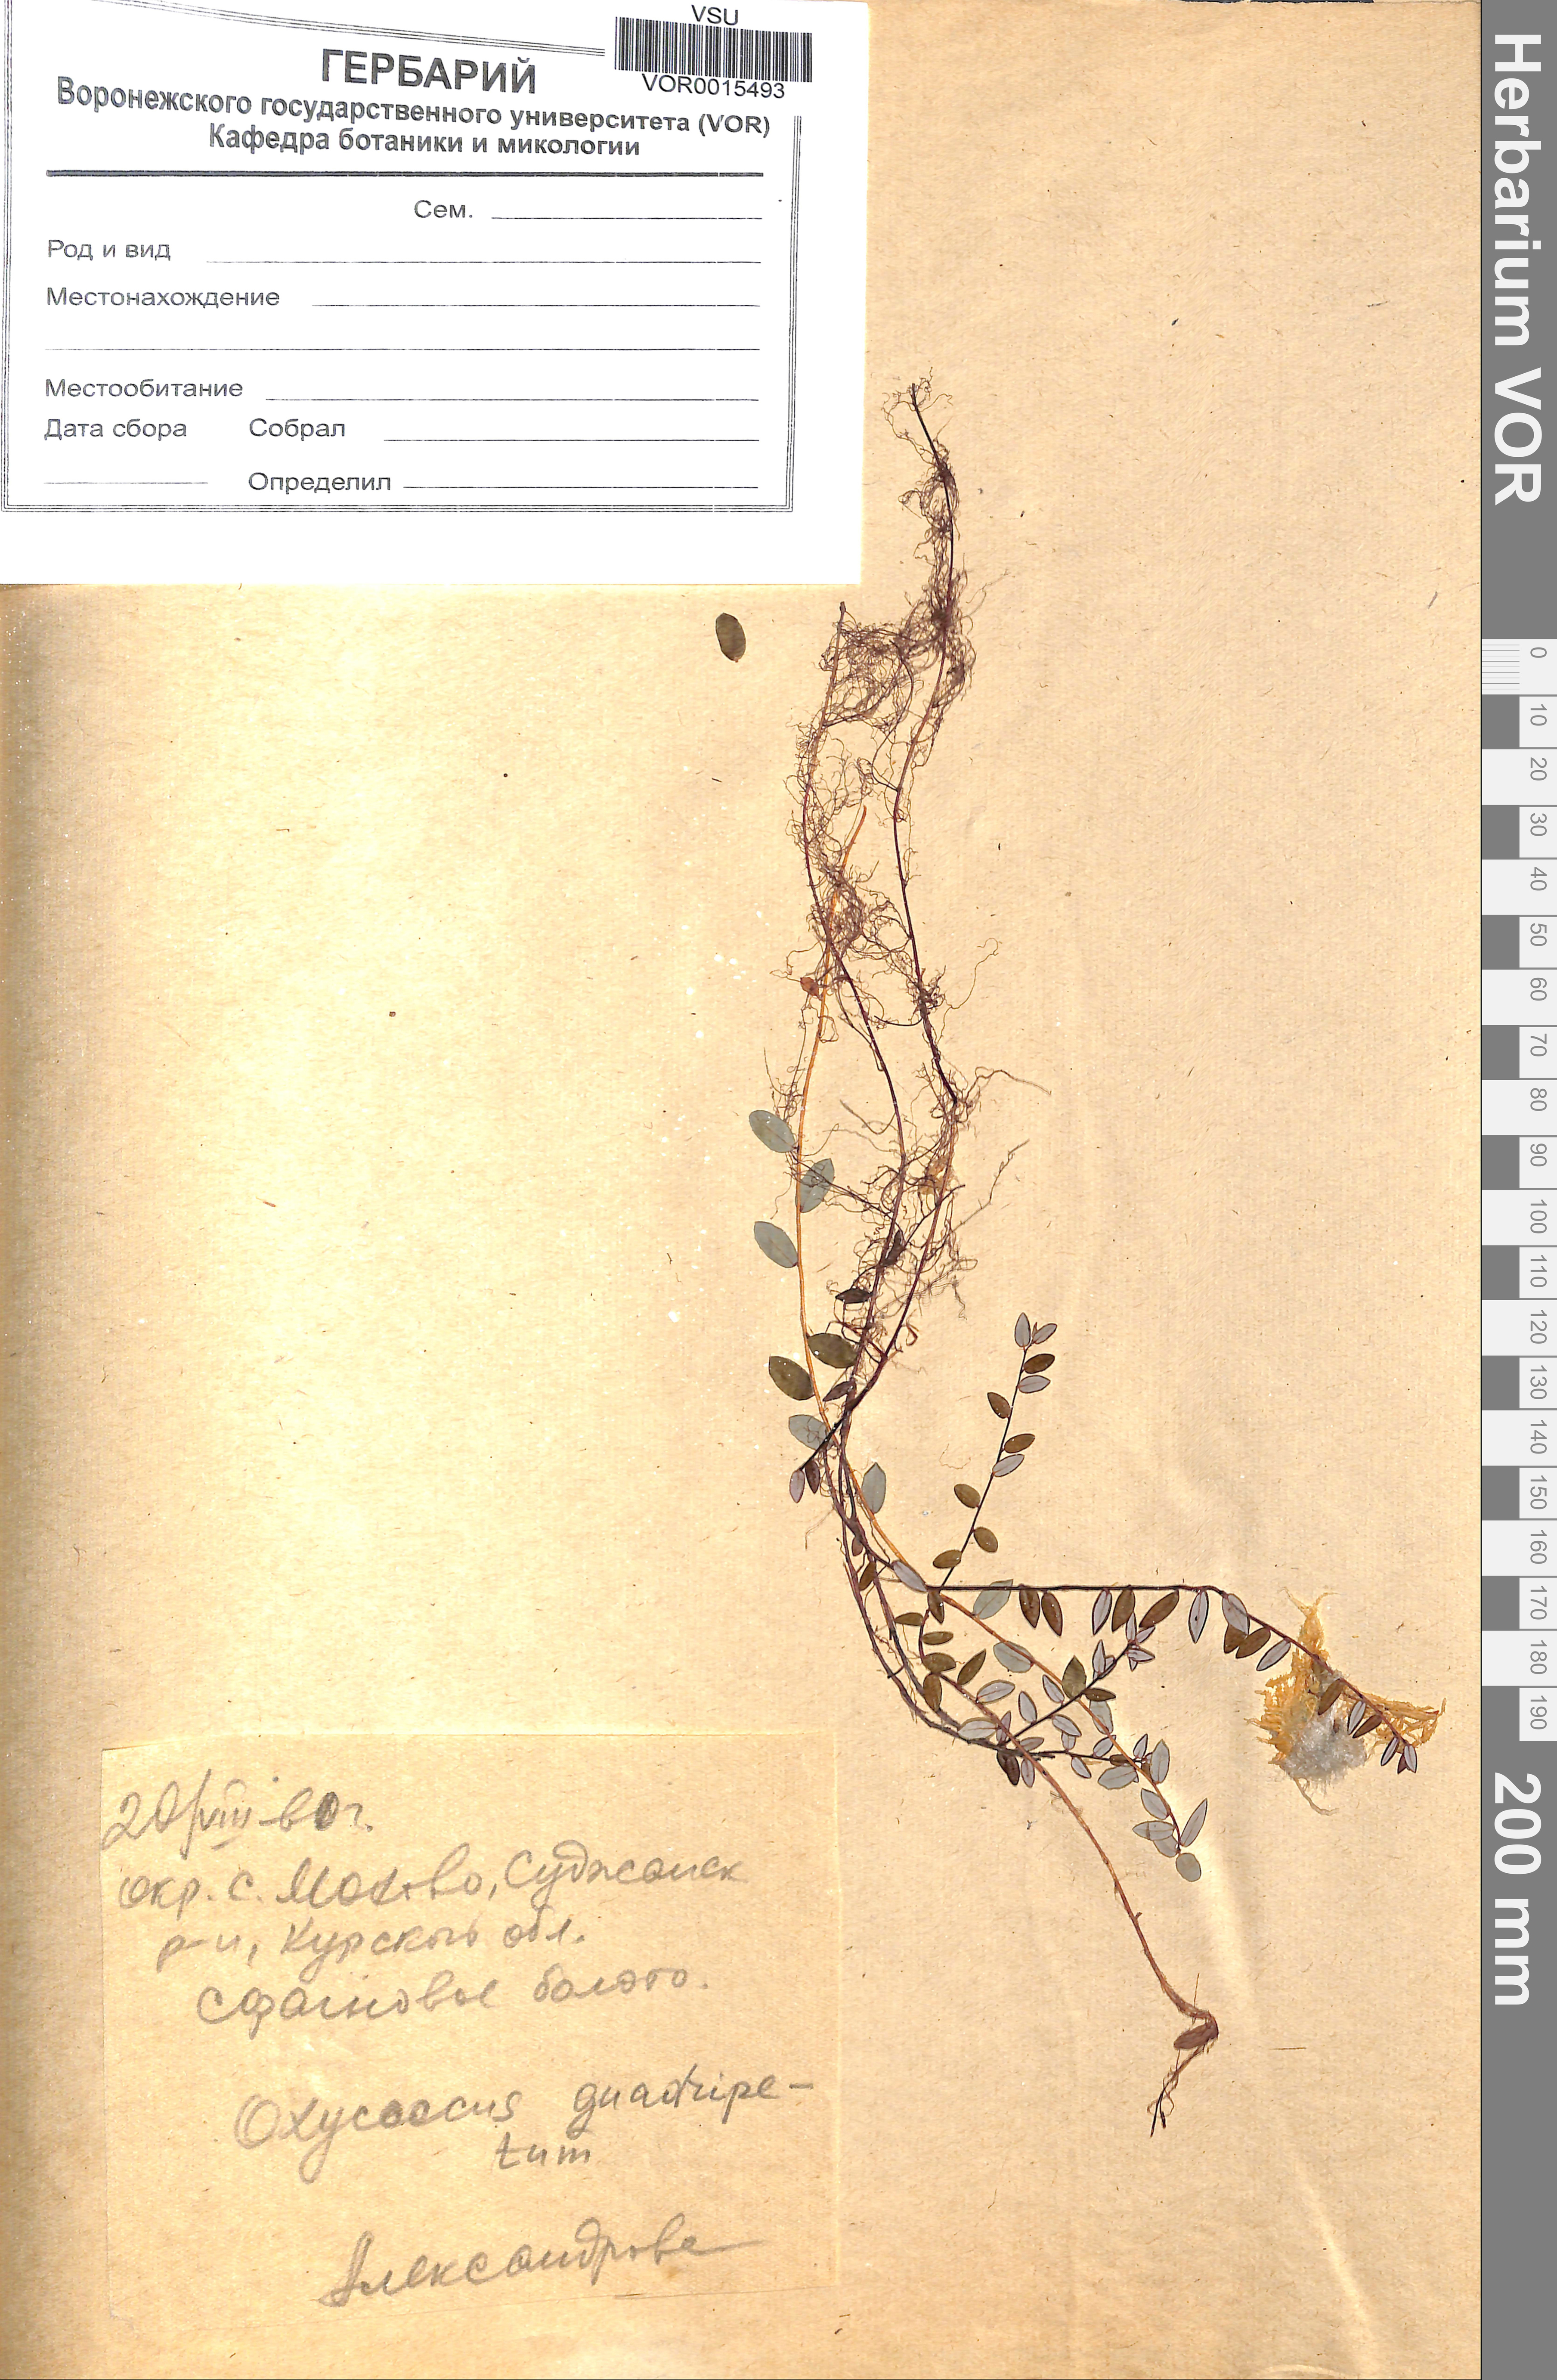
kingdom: Plantae
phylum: Tracheophyta
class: Magnoliopsida
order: Ericales
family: Ericaceae
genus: Vaccinium
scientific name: Vaccinium oxycoccos
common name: Cranberry
